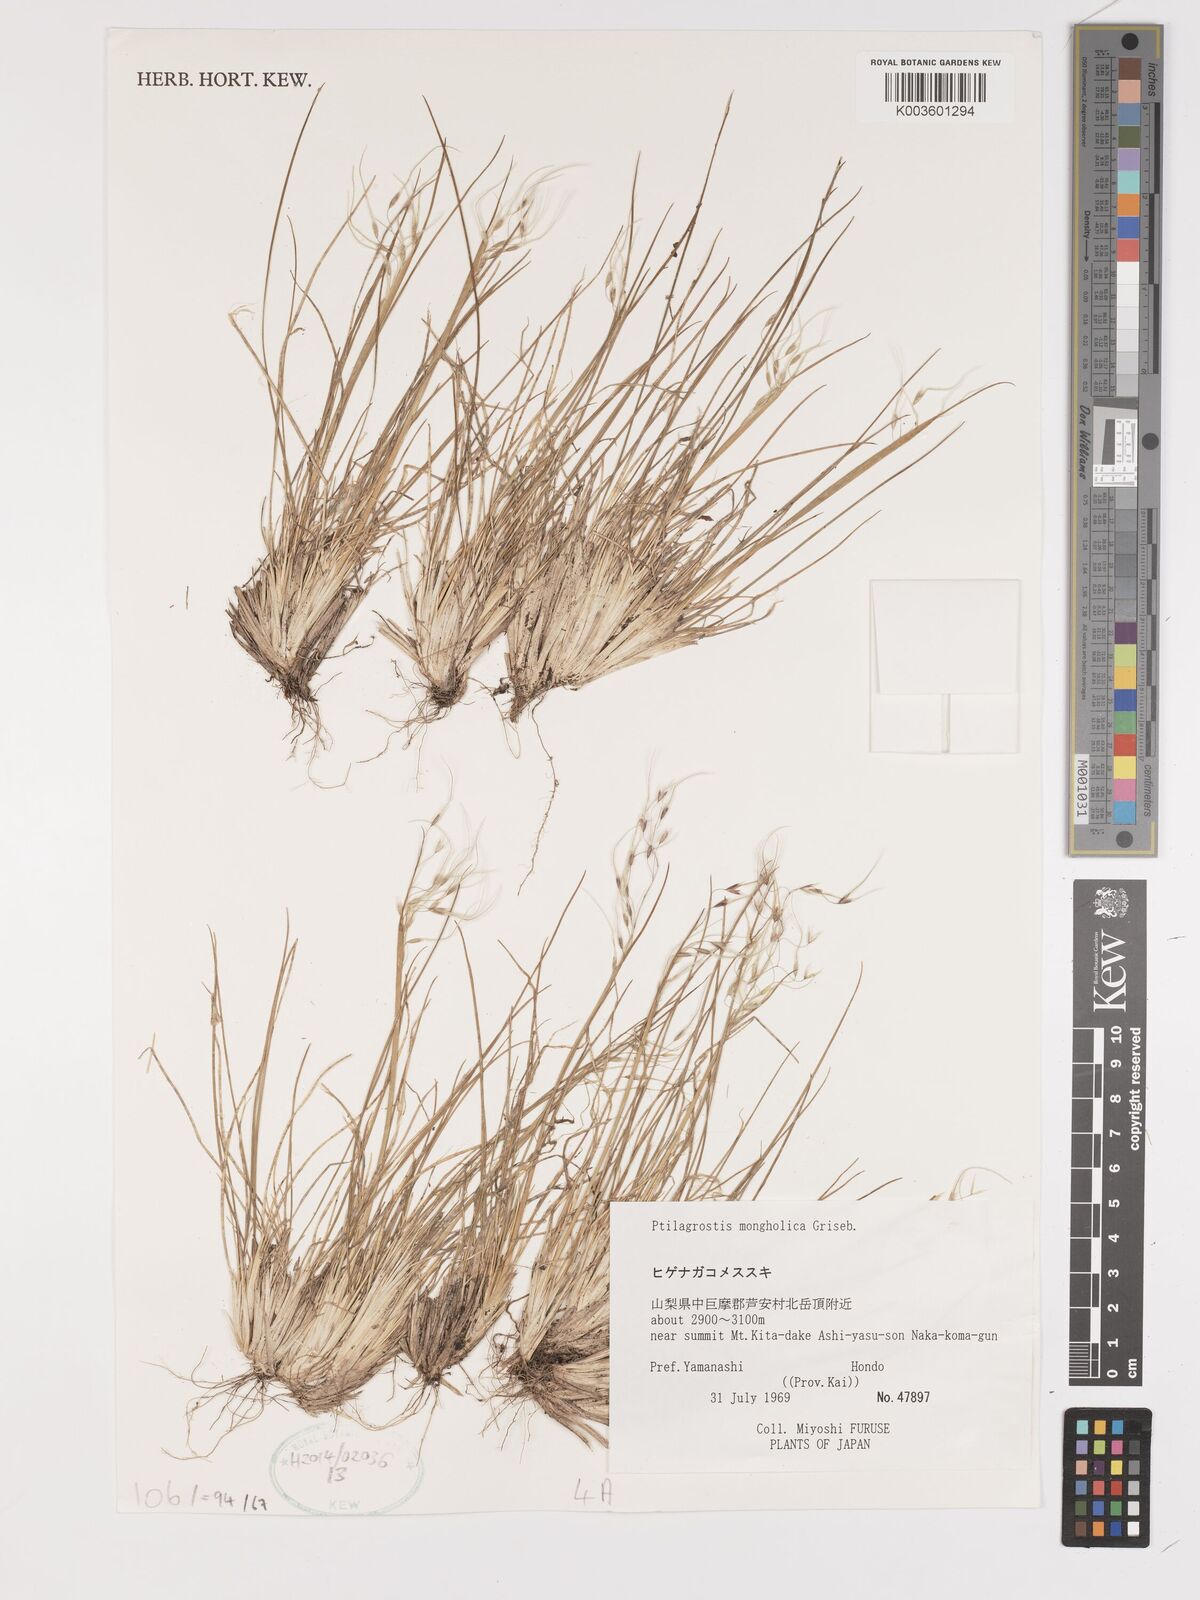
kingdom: Plantae
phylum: Tracheophyta
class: Liliopsida
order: Poales
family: Poaceae
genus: Ptilagrostis
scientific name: Ptilagrostis mongholica
